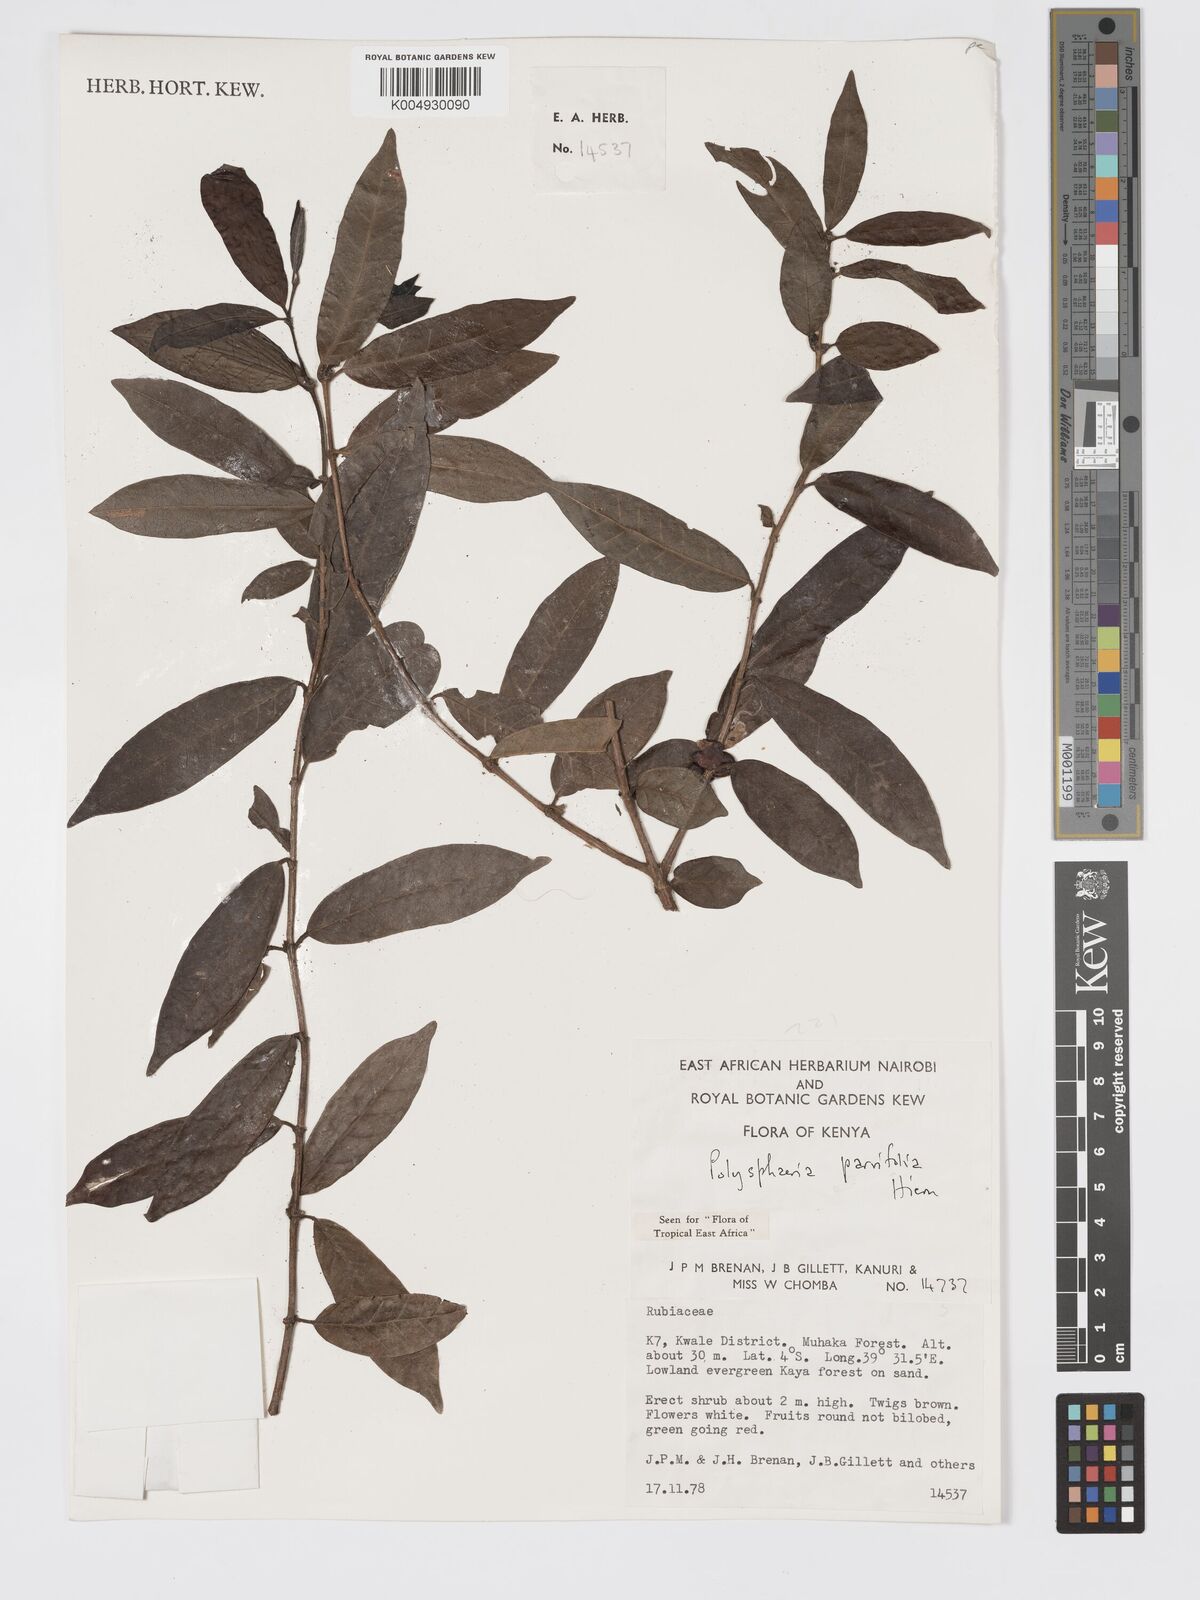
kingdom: Plantae
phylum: Tracheophyta
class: Magnoliopsida
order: Gentianales
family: Rubiaceae
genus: Eumachia
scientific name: Eumachia parviflora
